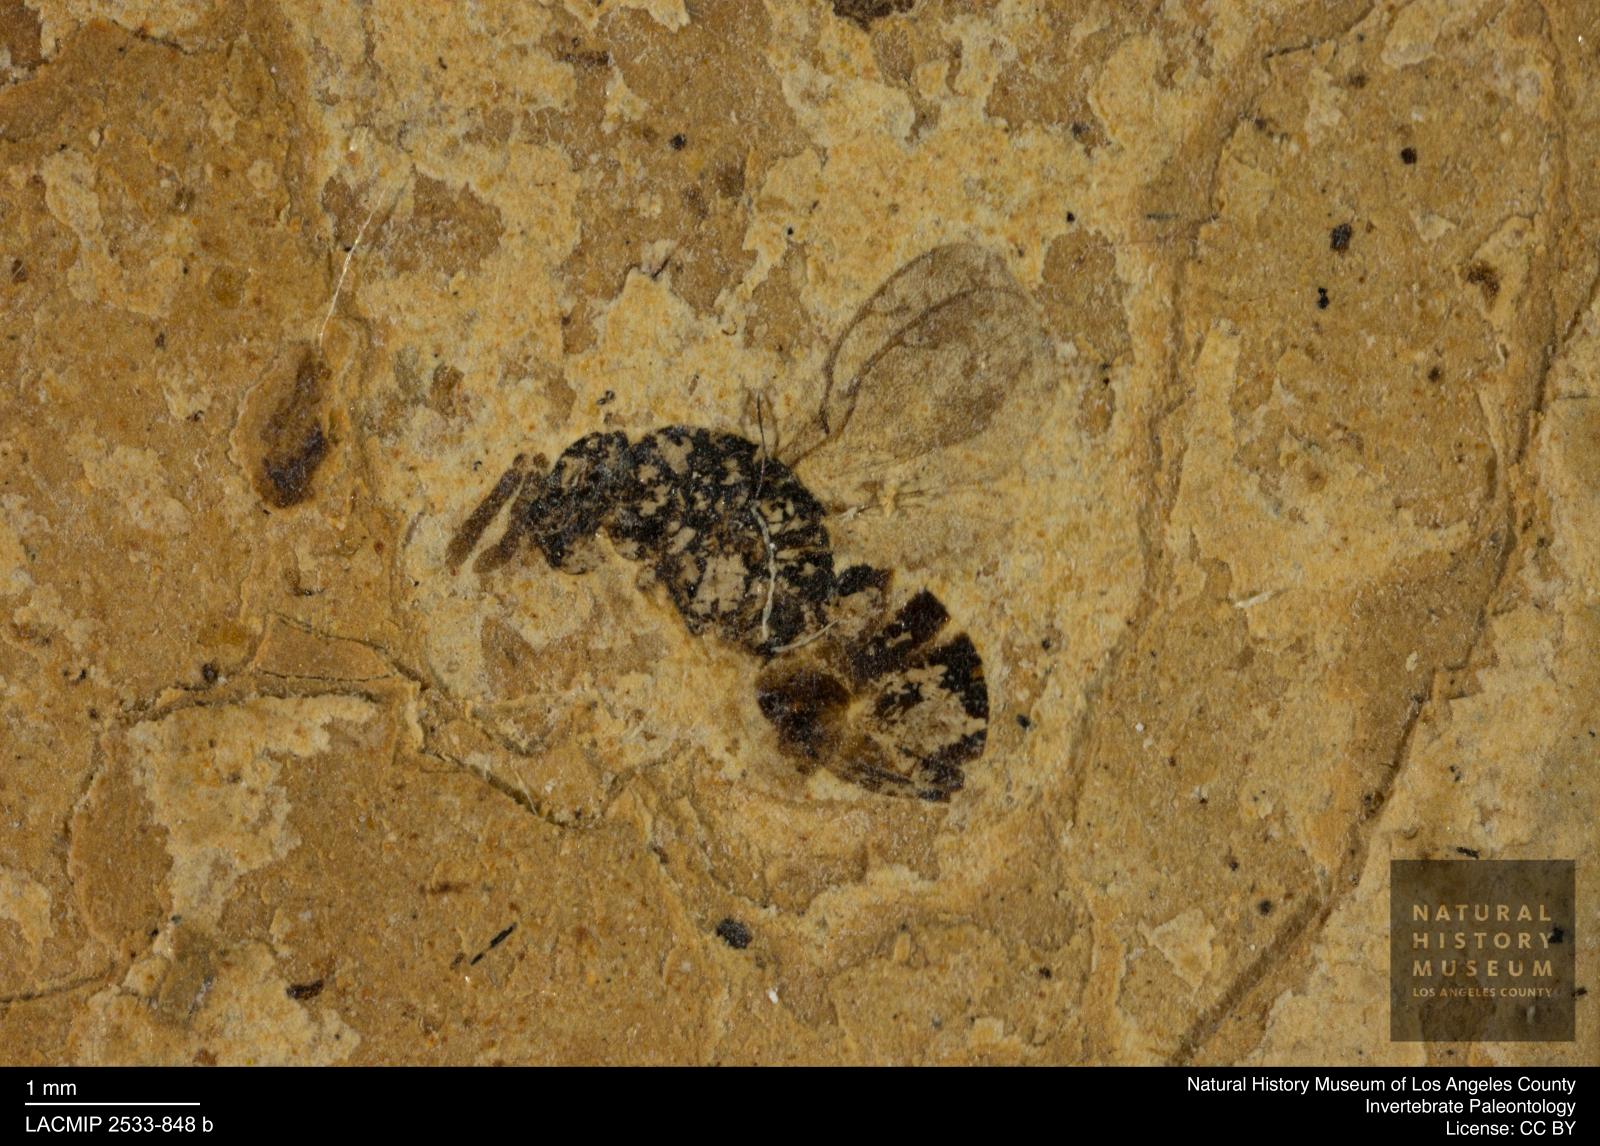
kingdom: Animalia
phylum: Arthropoda
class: Insecta
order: Hymenoptera
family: Pteromalidae
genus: Pteromalus
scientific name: Pteromalus latipennatus
